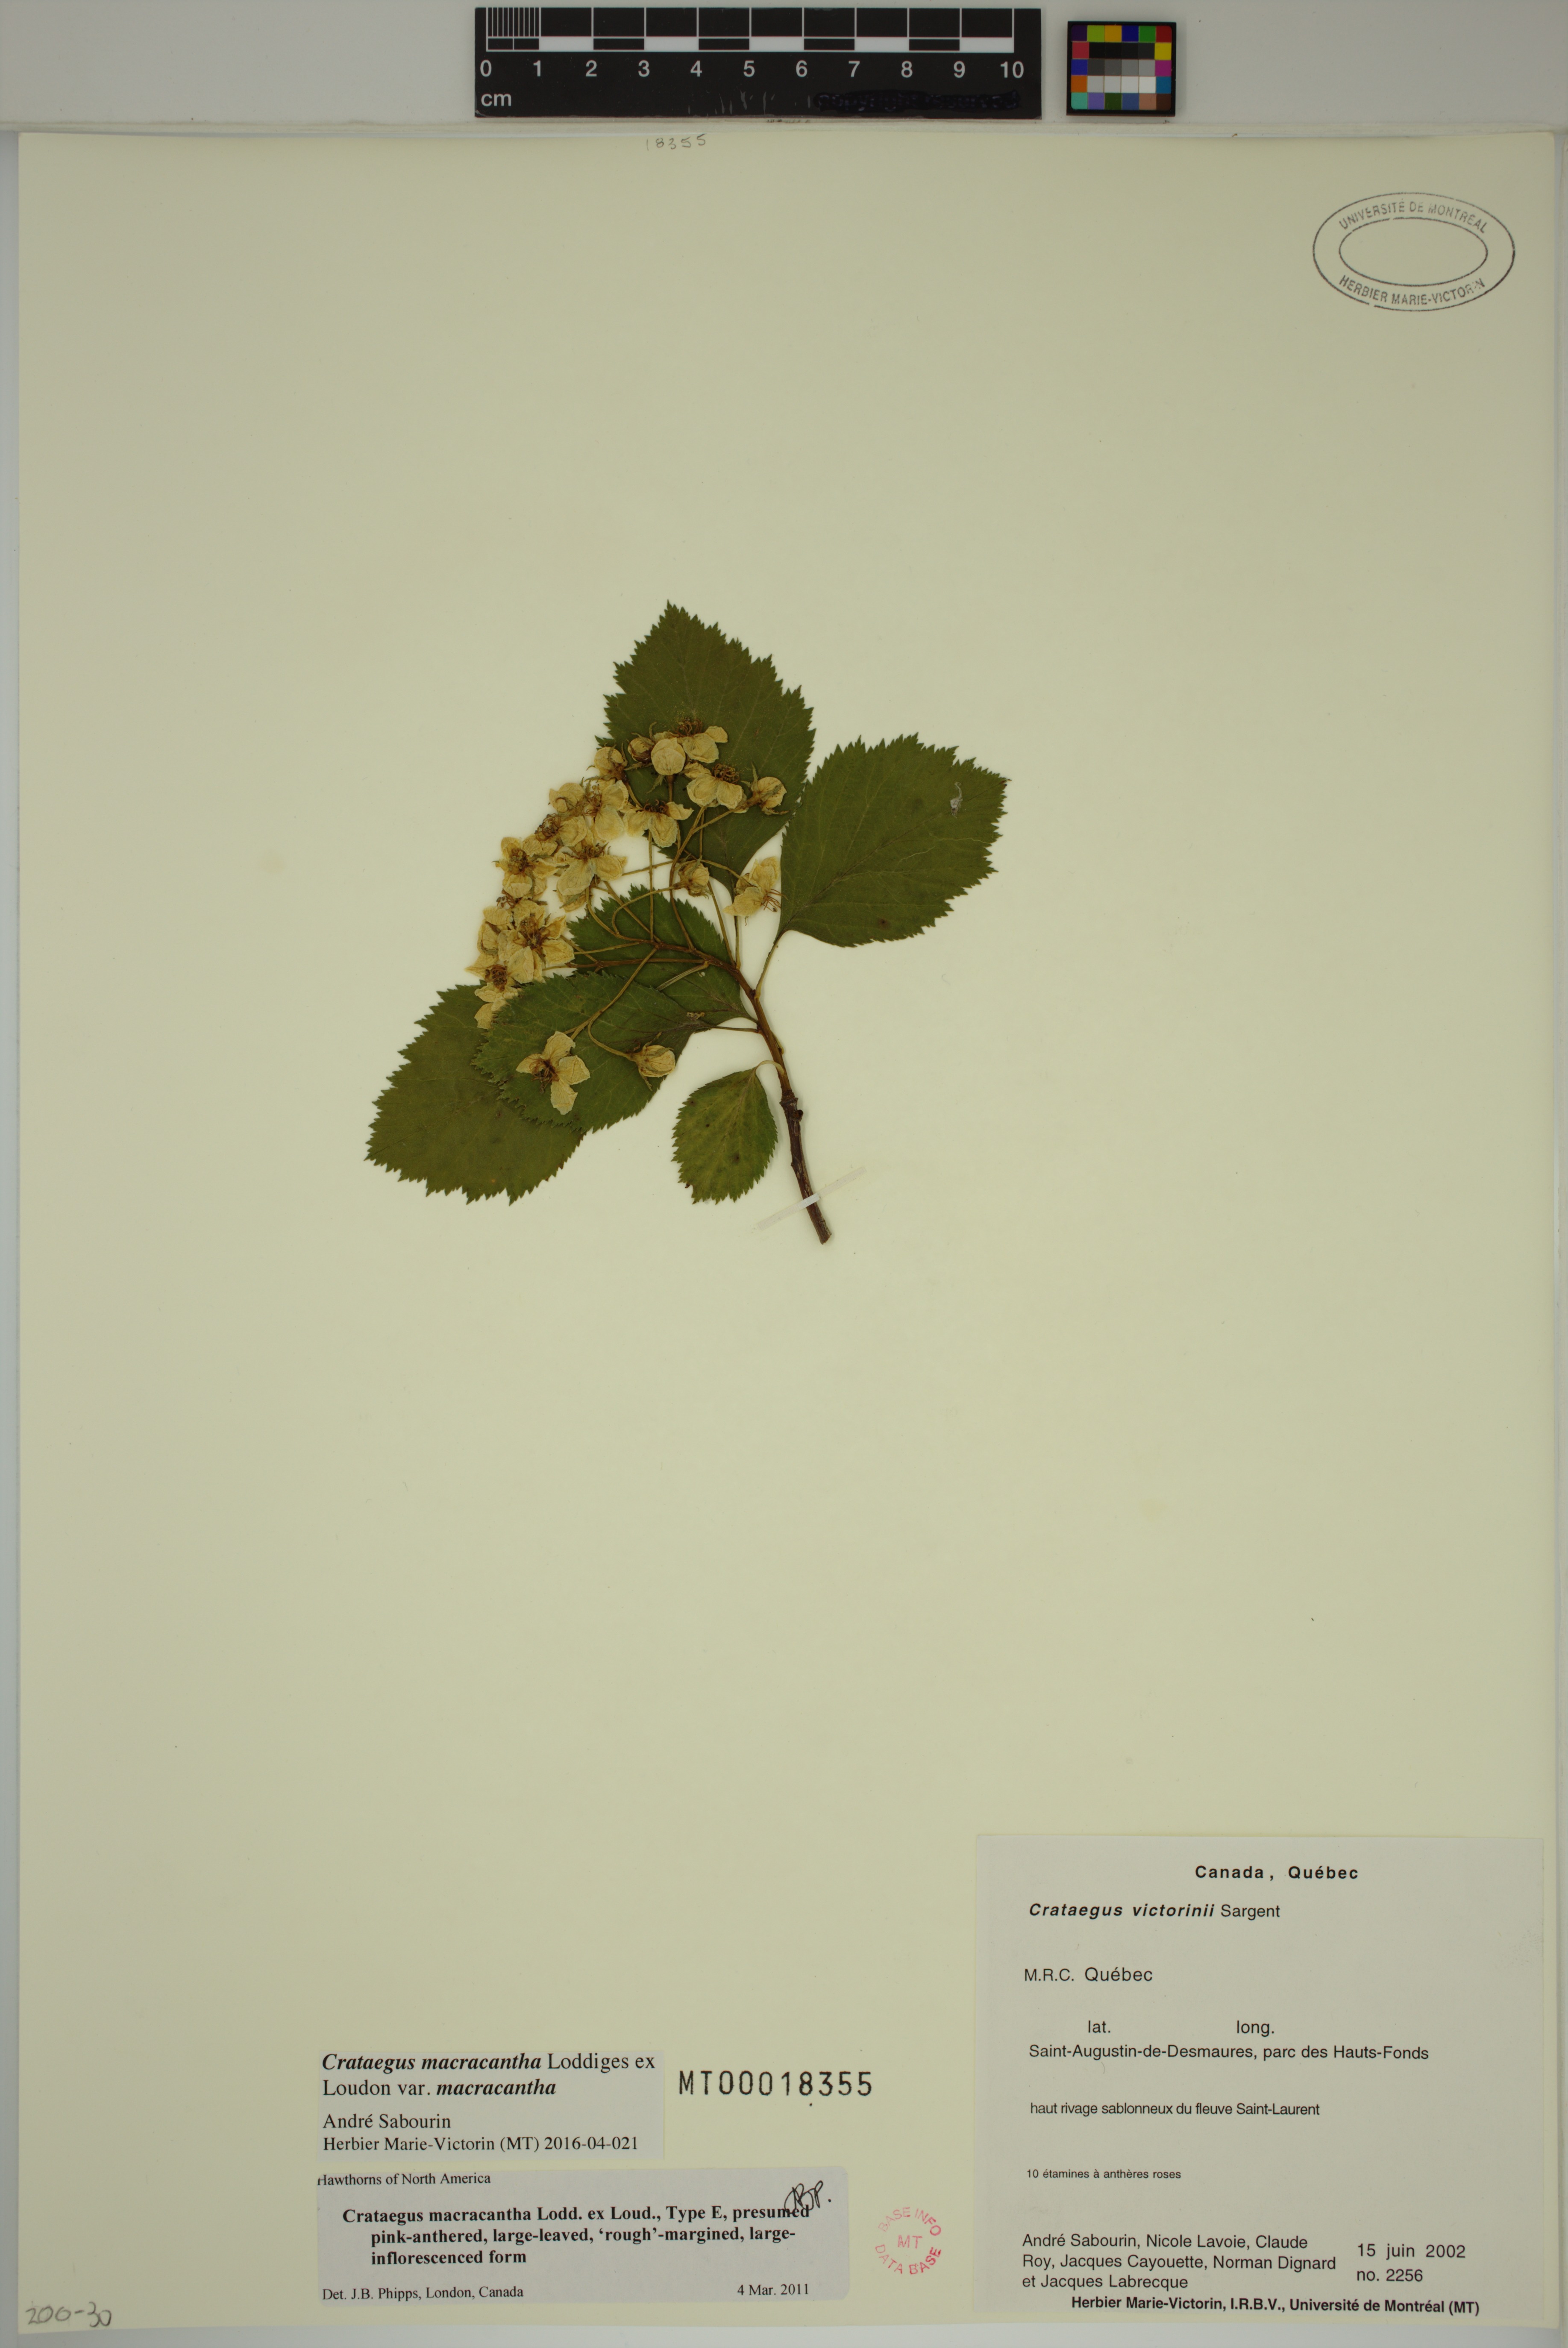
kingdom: Plantae
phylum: Tracheophyta
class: Magnoliopsida
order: Rosales
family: Rosaceae
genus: Crataegus
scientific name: Crataegus macracantha
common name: Large-thorn hawthorn
